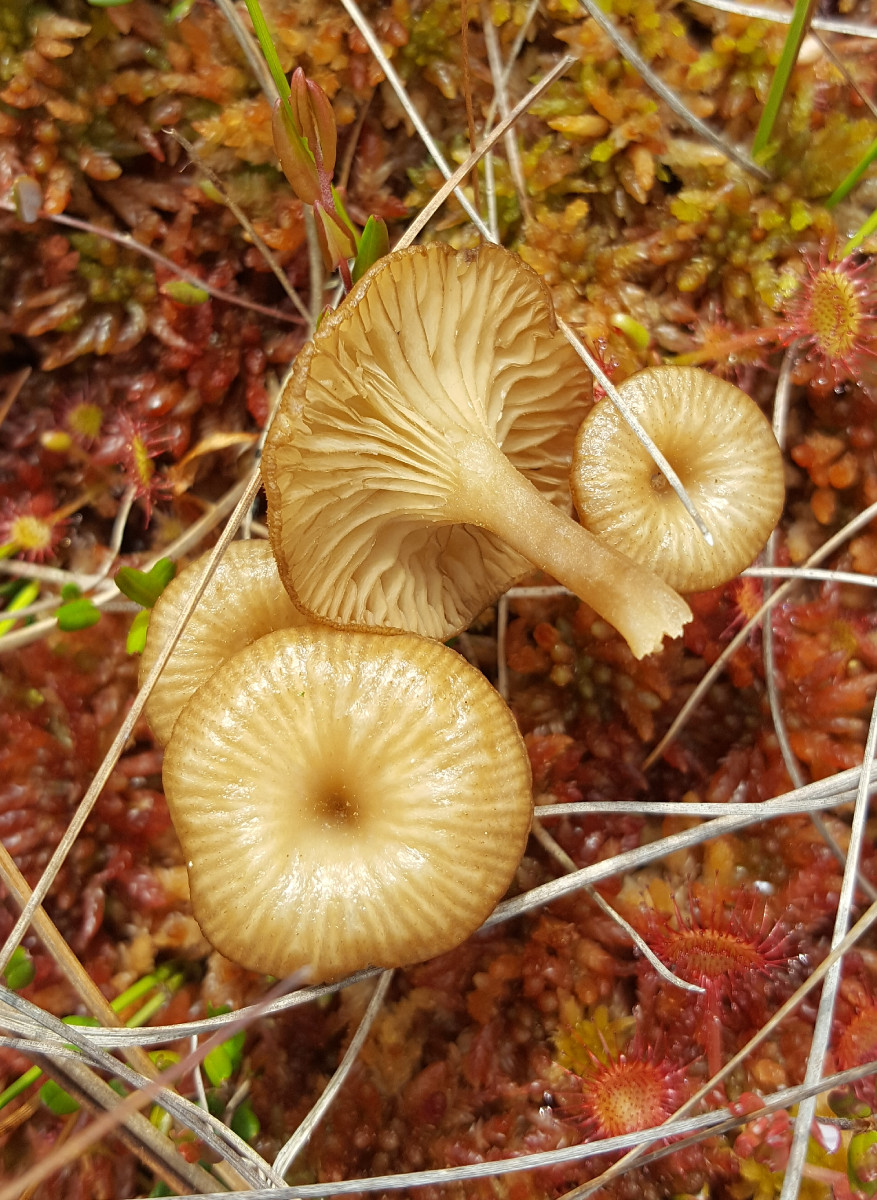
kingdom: Fungi
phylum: Basidiomycota
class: Agaricomycetes
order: Agaricales
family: Hygrophoraceae
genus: Arrhenia
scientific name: Arrhenia gerardiana
